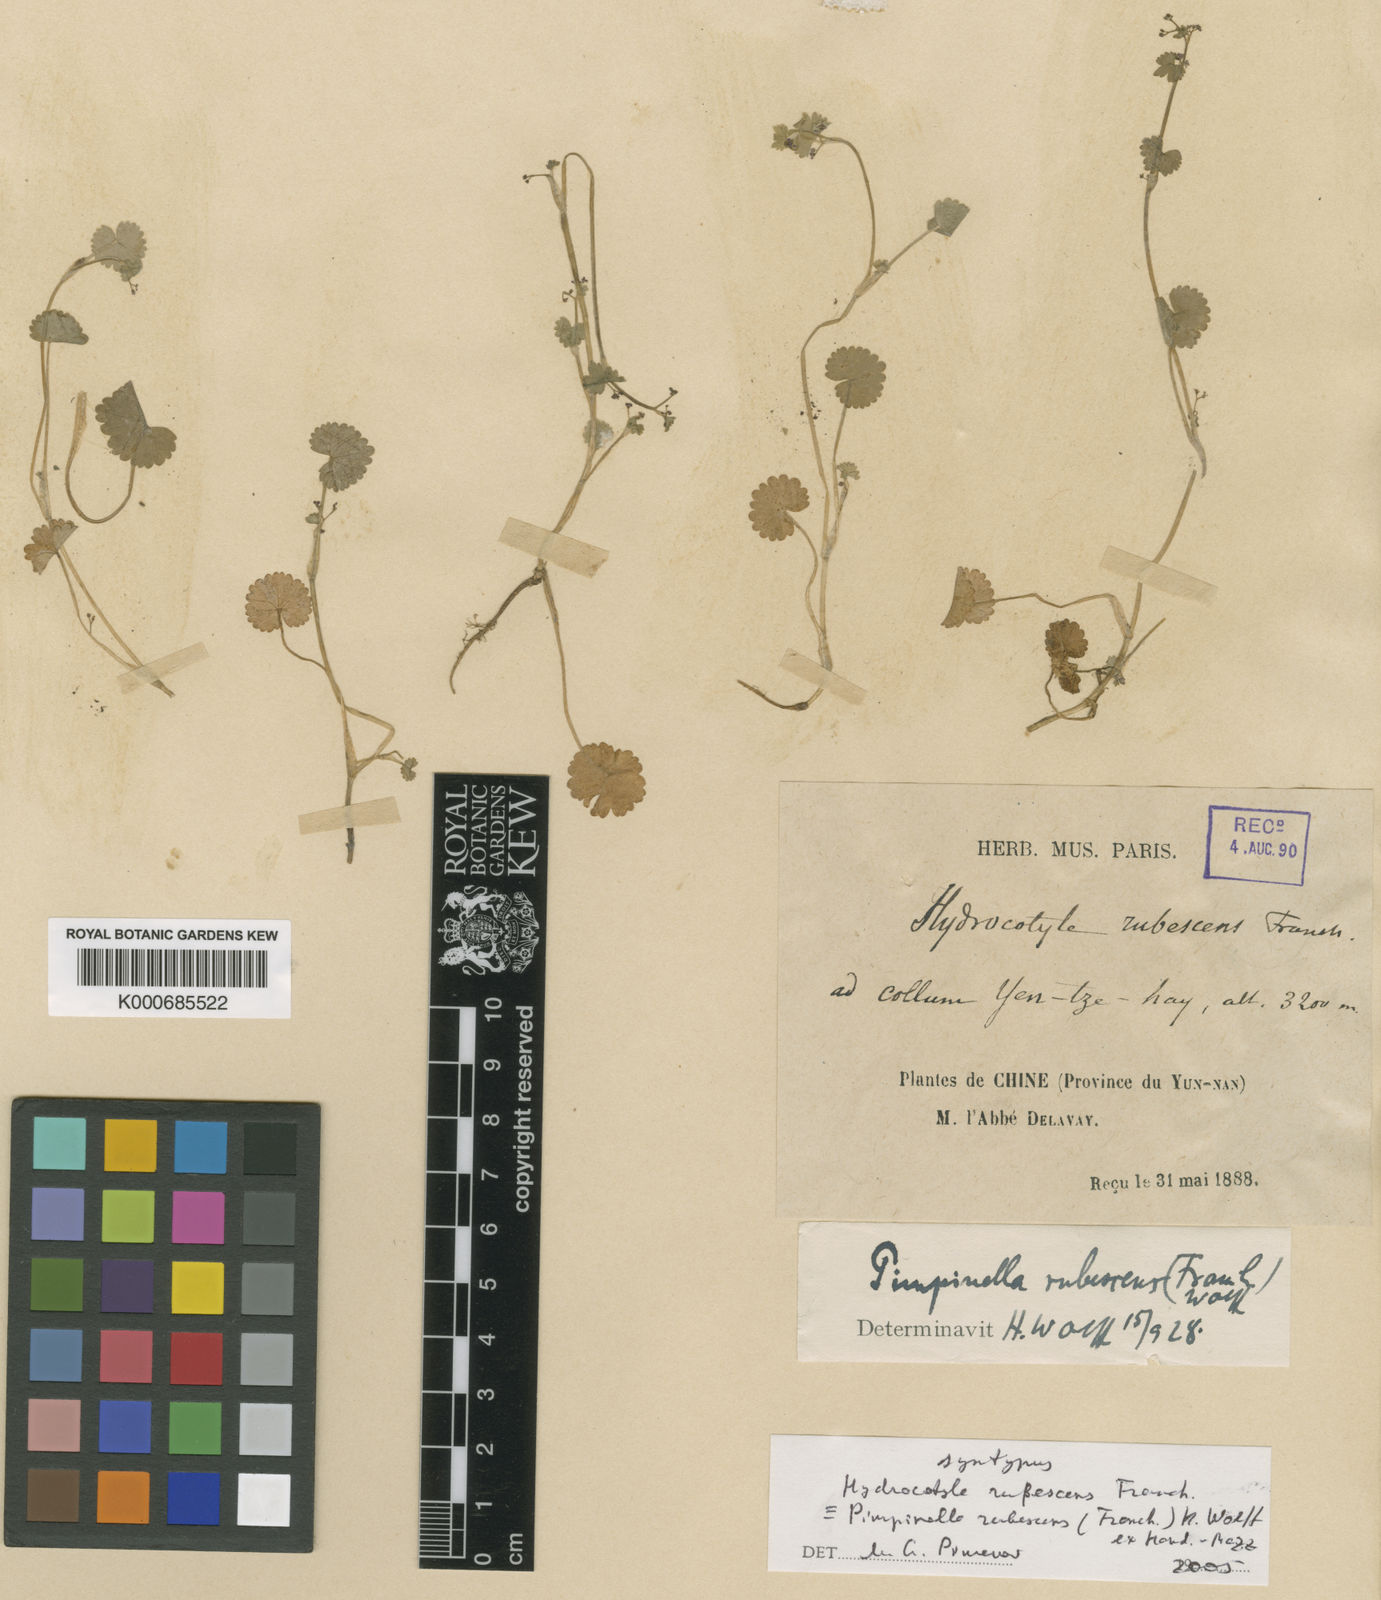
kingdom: Plantae
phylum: Tracheophyta
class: Magnoliopsida
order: Apiales
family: Apiaceae
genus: Pimpinella
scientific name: Pimpinella rubescens
